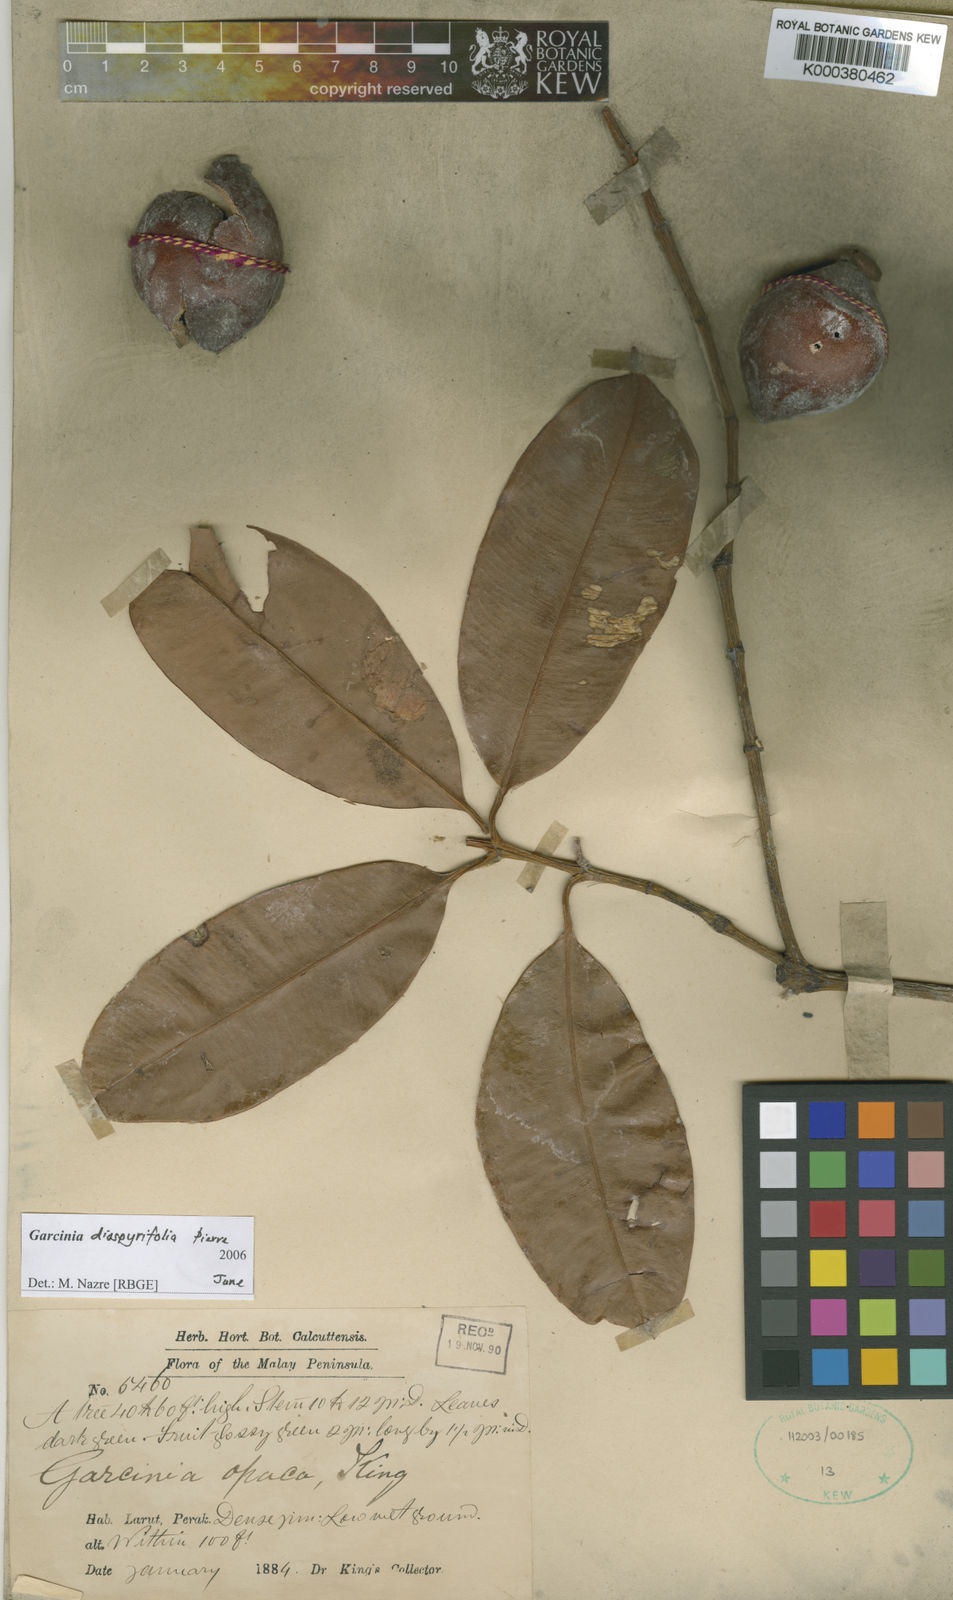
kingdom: Plantae
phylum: Tracheophyta
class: Magnoliopsida
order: Malpighiales
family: Clusiaceae
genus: Garcinia
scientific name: Garcinia diospyrifolia
